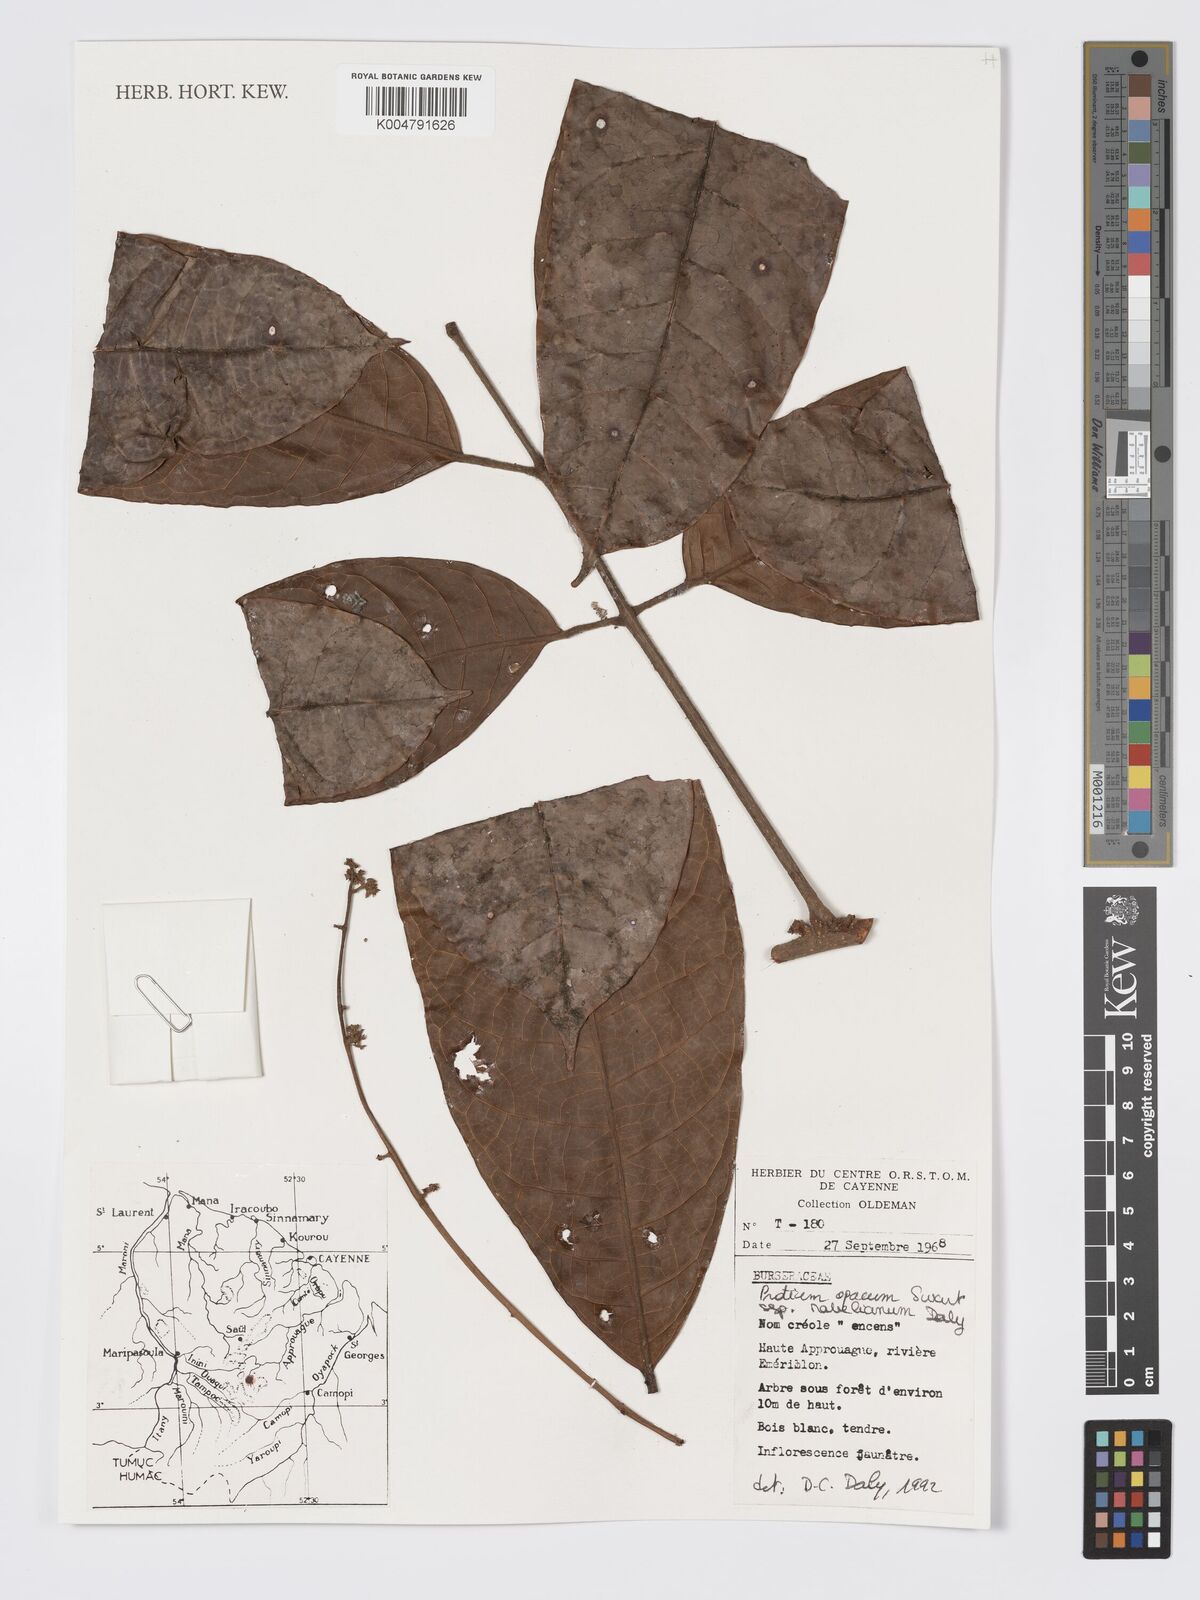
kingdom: Plantae
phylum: Tracheophyta
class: Magnoliopsida
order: Sapindales
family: Burseraceae
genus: Protium
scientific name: Protium opacum
